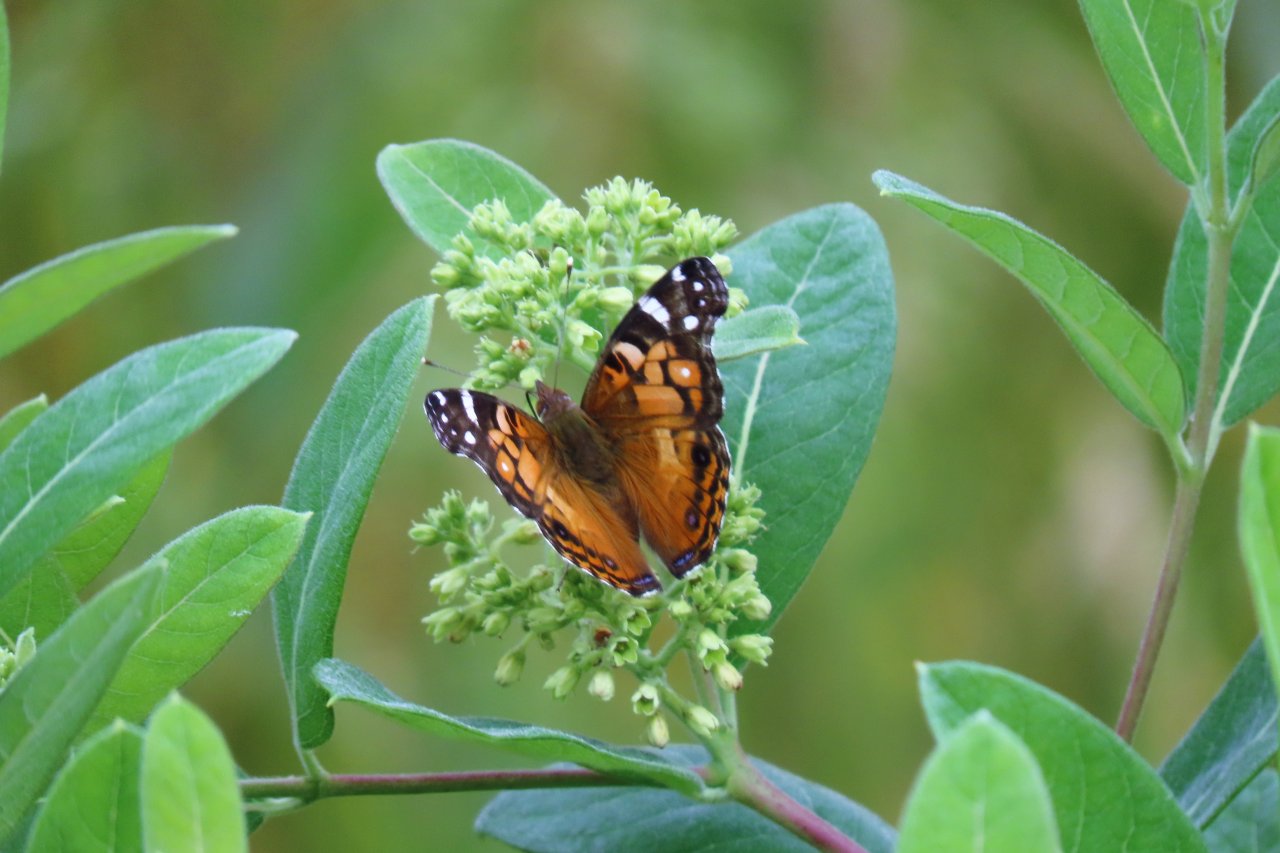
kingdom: Animalia
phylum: Arthropoda
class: Insecta
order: Lepidoptera
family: Nymphalidae
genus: Vanessa
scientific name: Vanessa virginiensis
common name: American Lady
